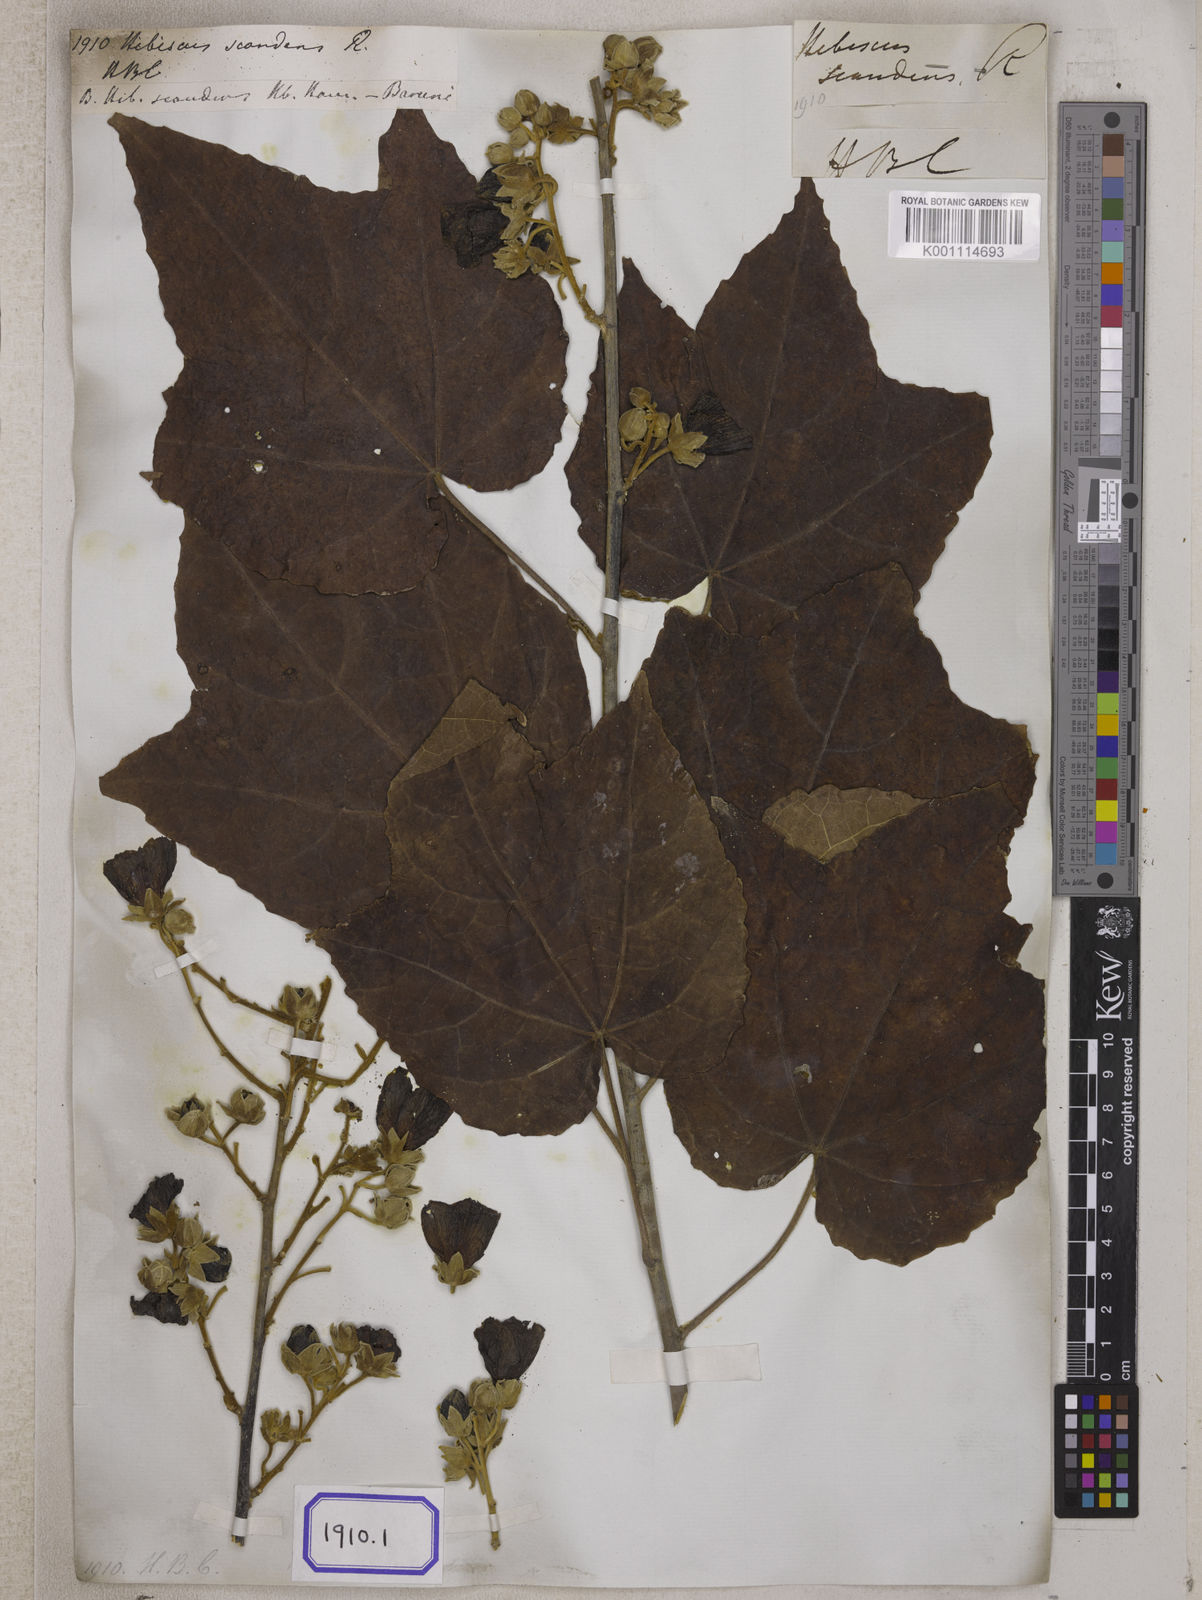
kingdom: Plantae
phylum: Tracheophyta
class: Magnoliopsida
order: Malvales
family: Malvaceae
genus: Hibiscus
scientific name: Hibiscus
